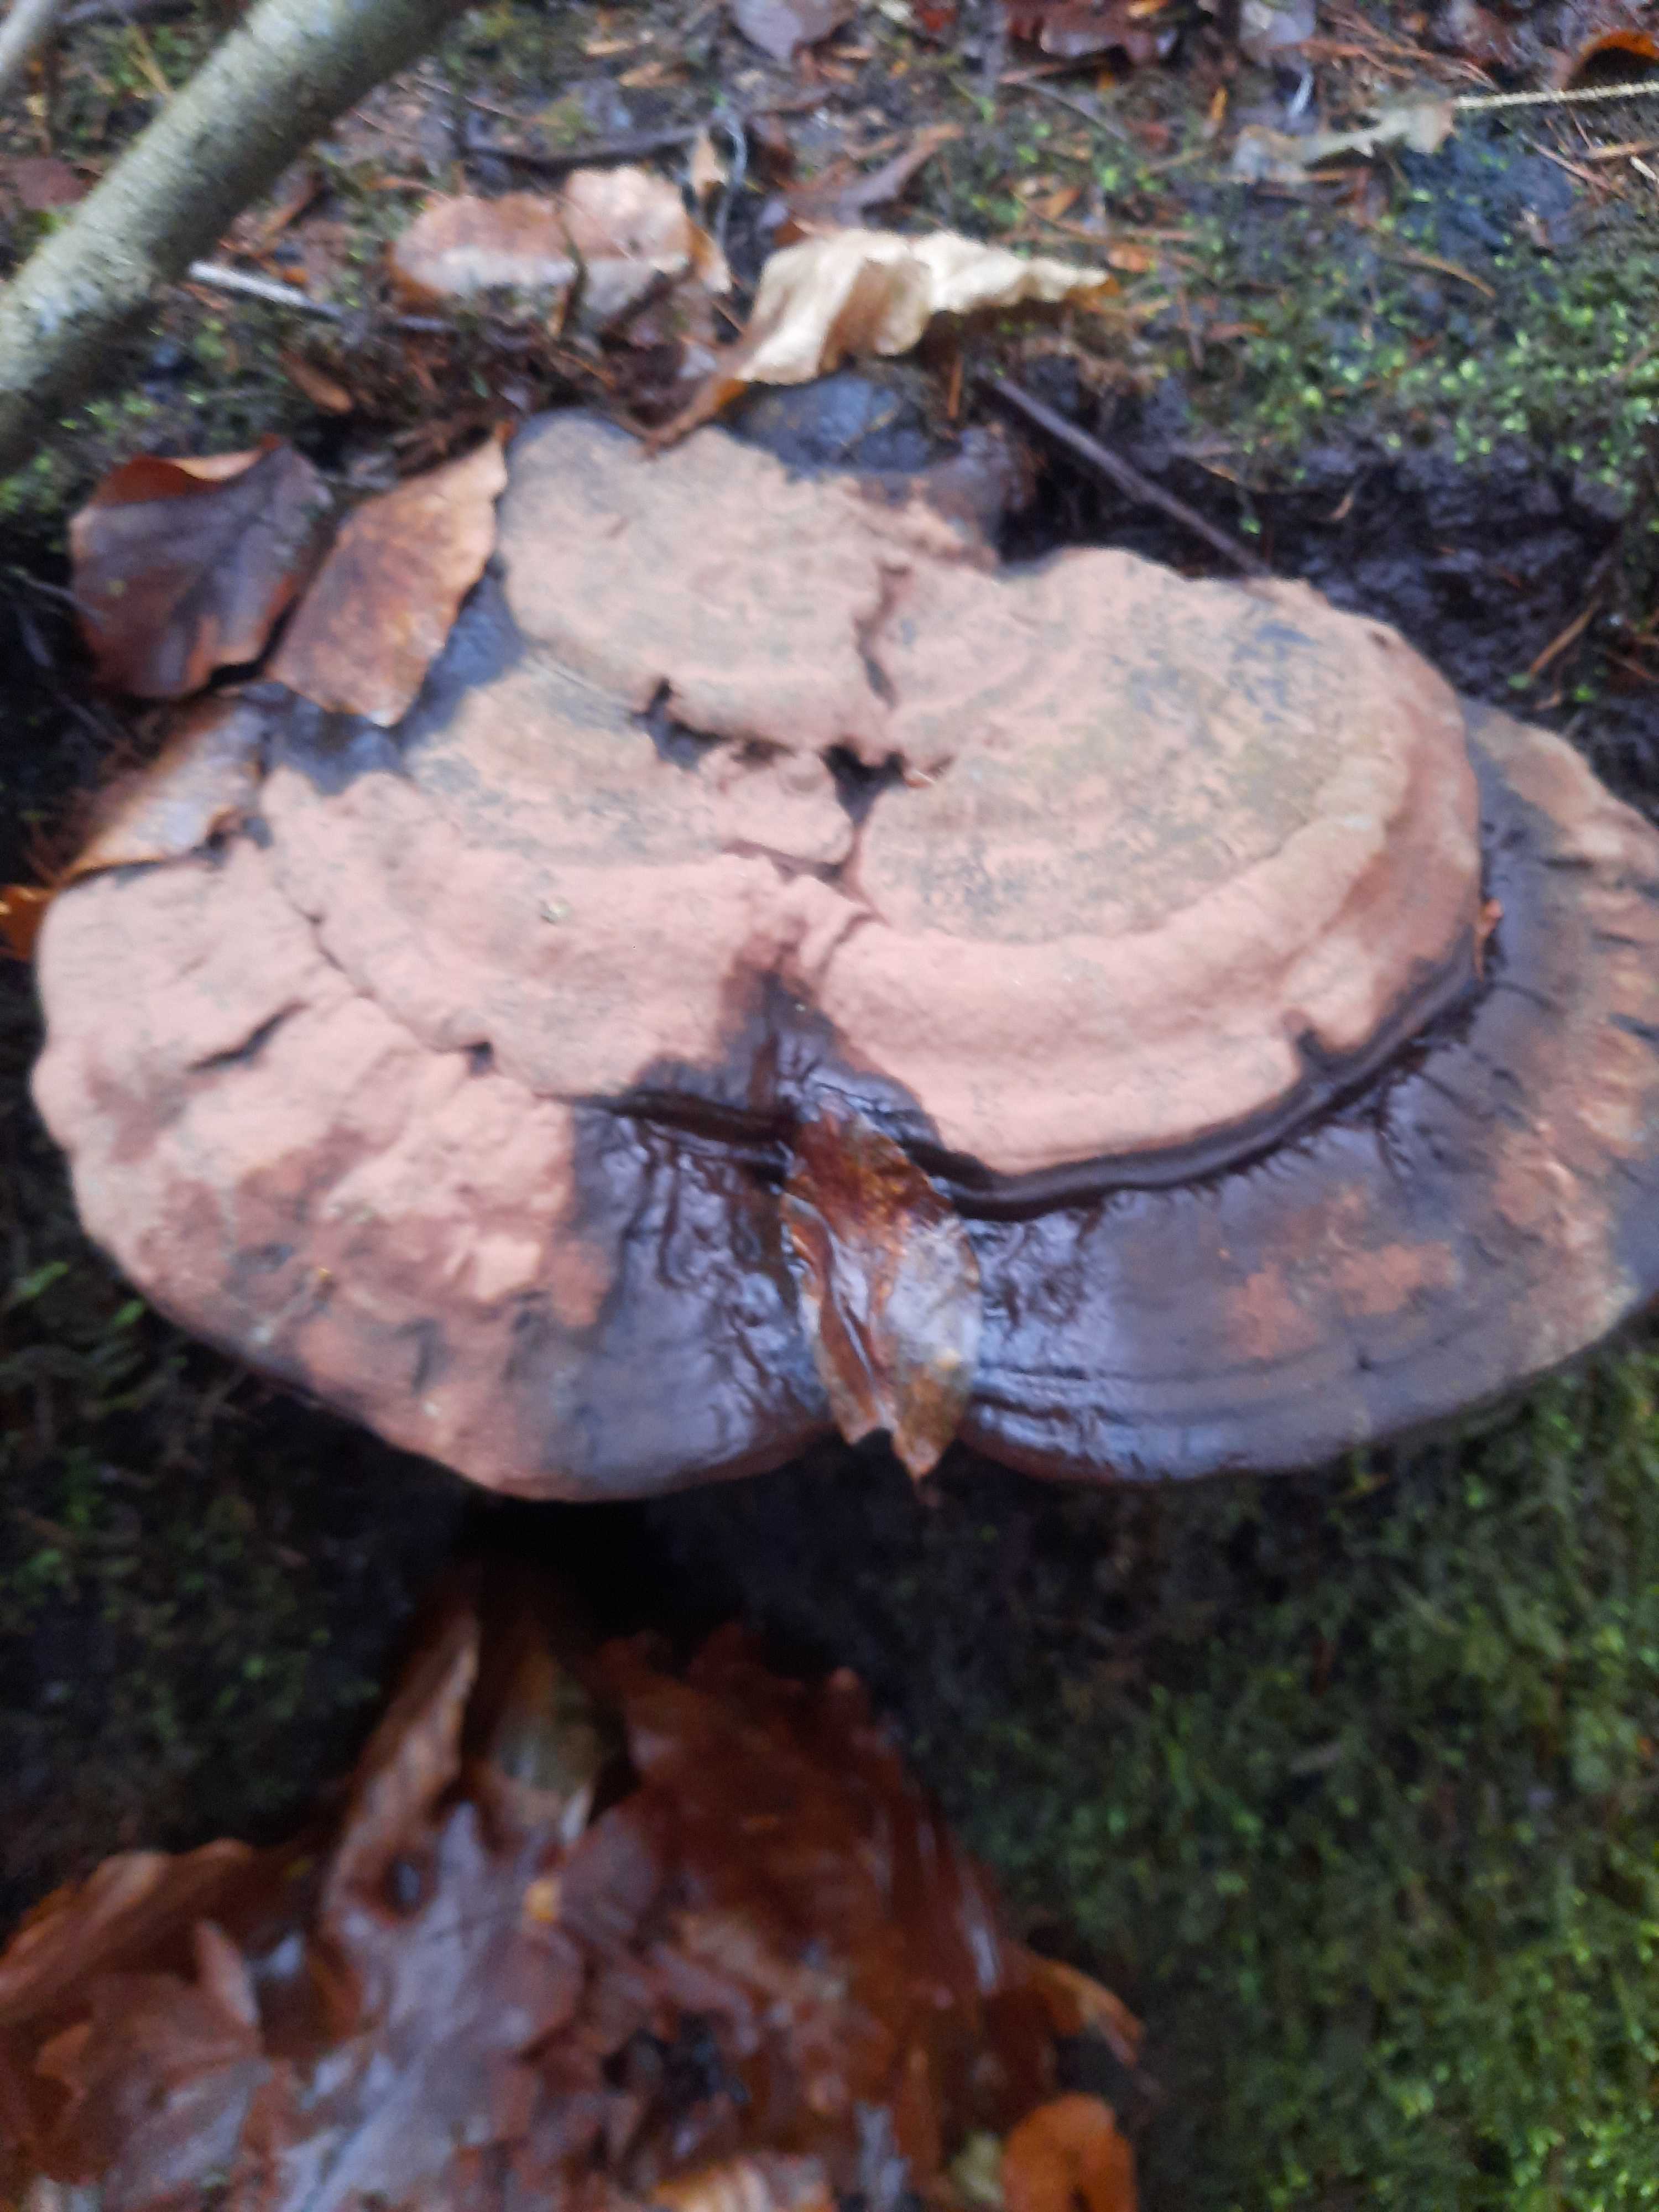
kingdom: Fungi
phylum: Basidiomycota
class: Agaricomycetes
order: Polyporales
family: Polyporaceae
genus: Ganoderma
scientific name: Ganoderma applanatum
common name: flad lakporesvamp
